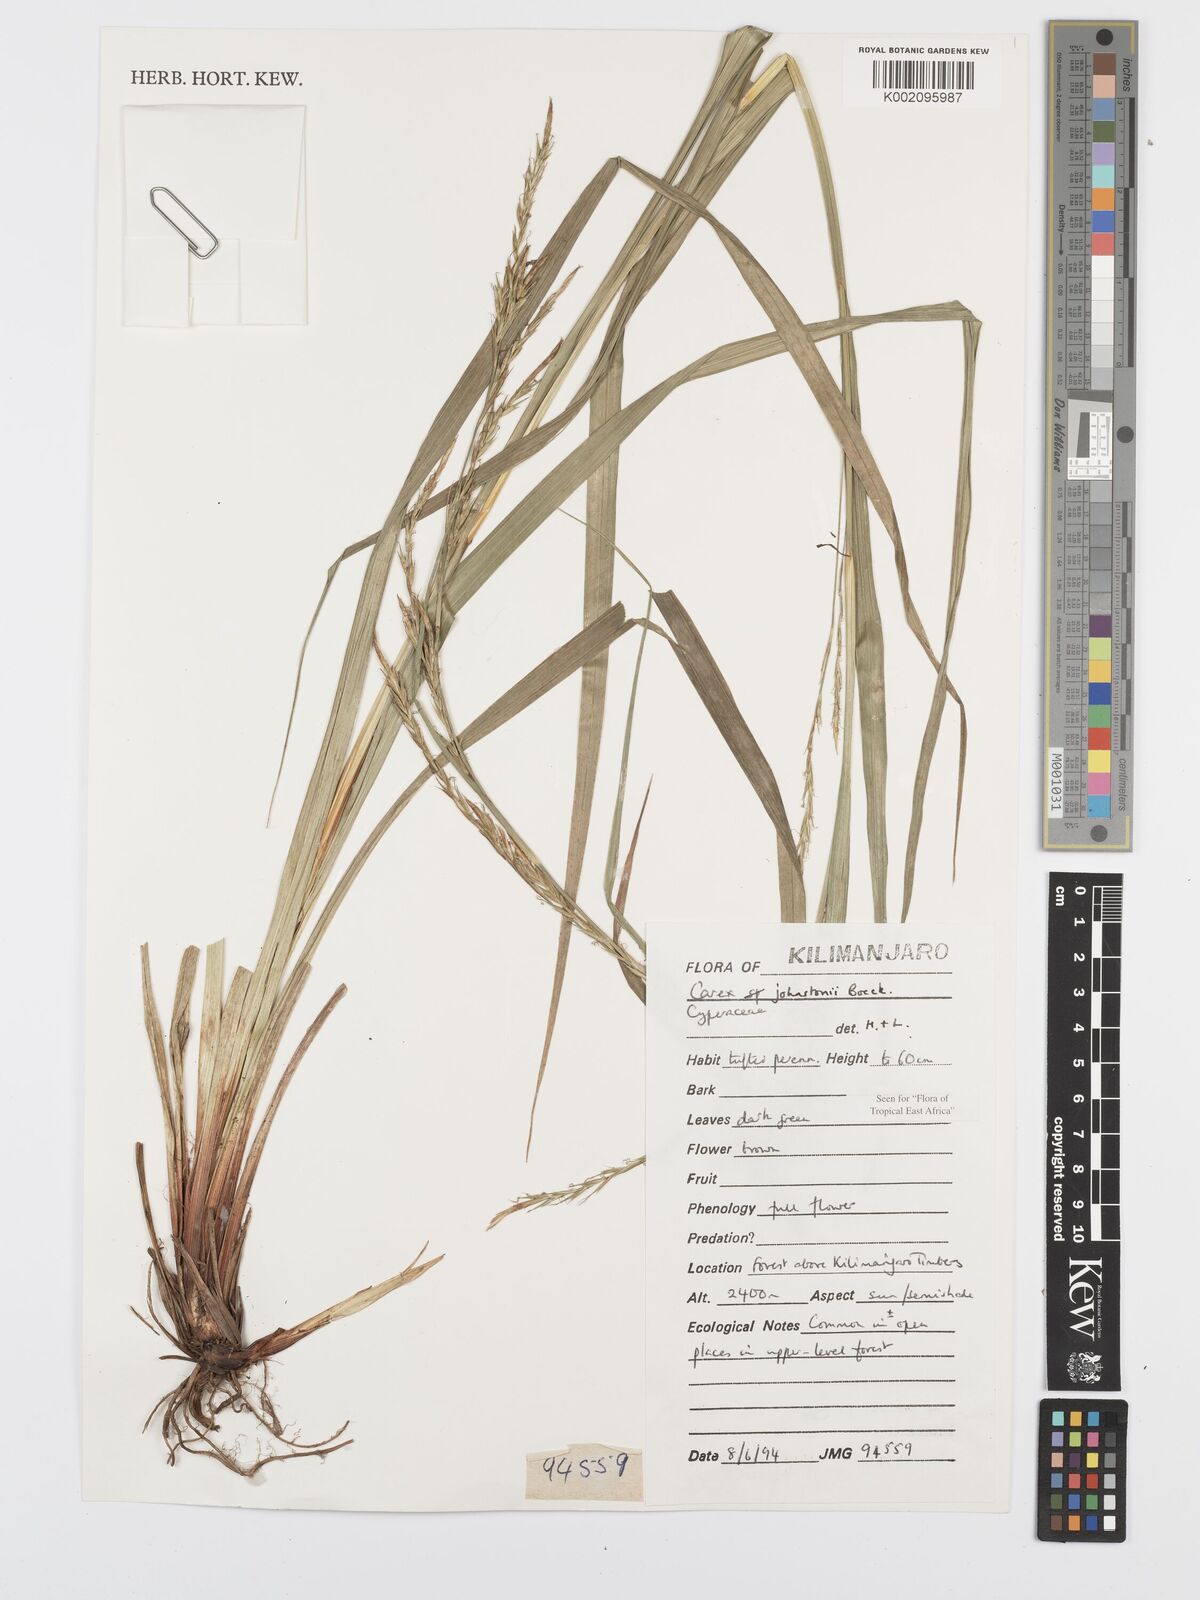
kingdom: Plantae
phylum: Tracheophyta
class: Liliopsida
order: Poales
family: Cyperaceae
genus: Carex
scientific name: Carex johnstonii
